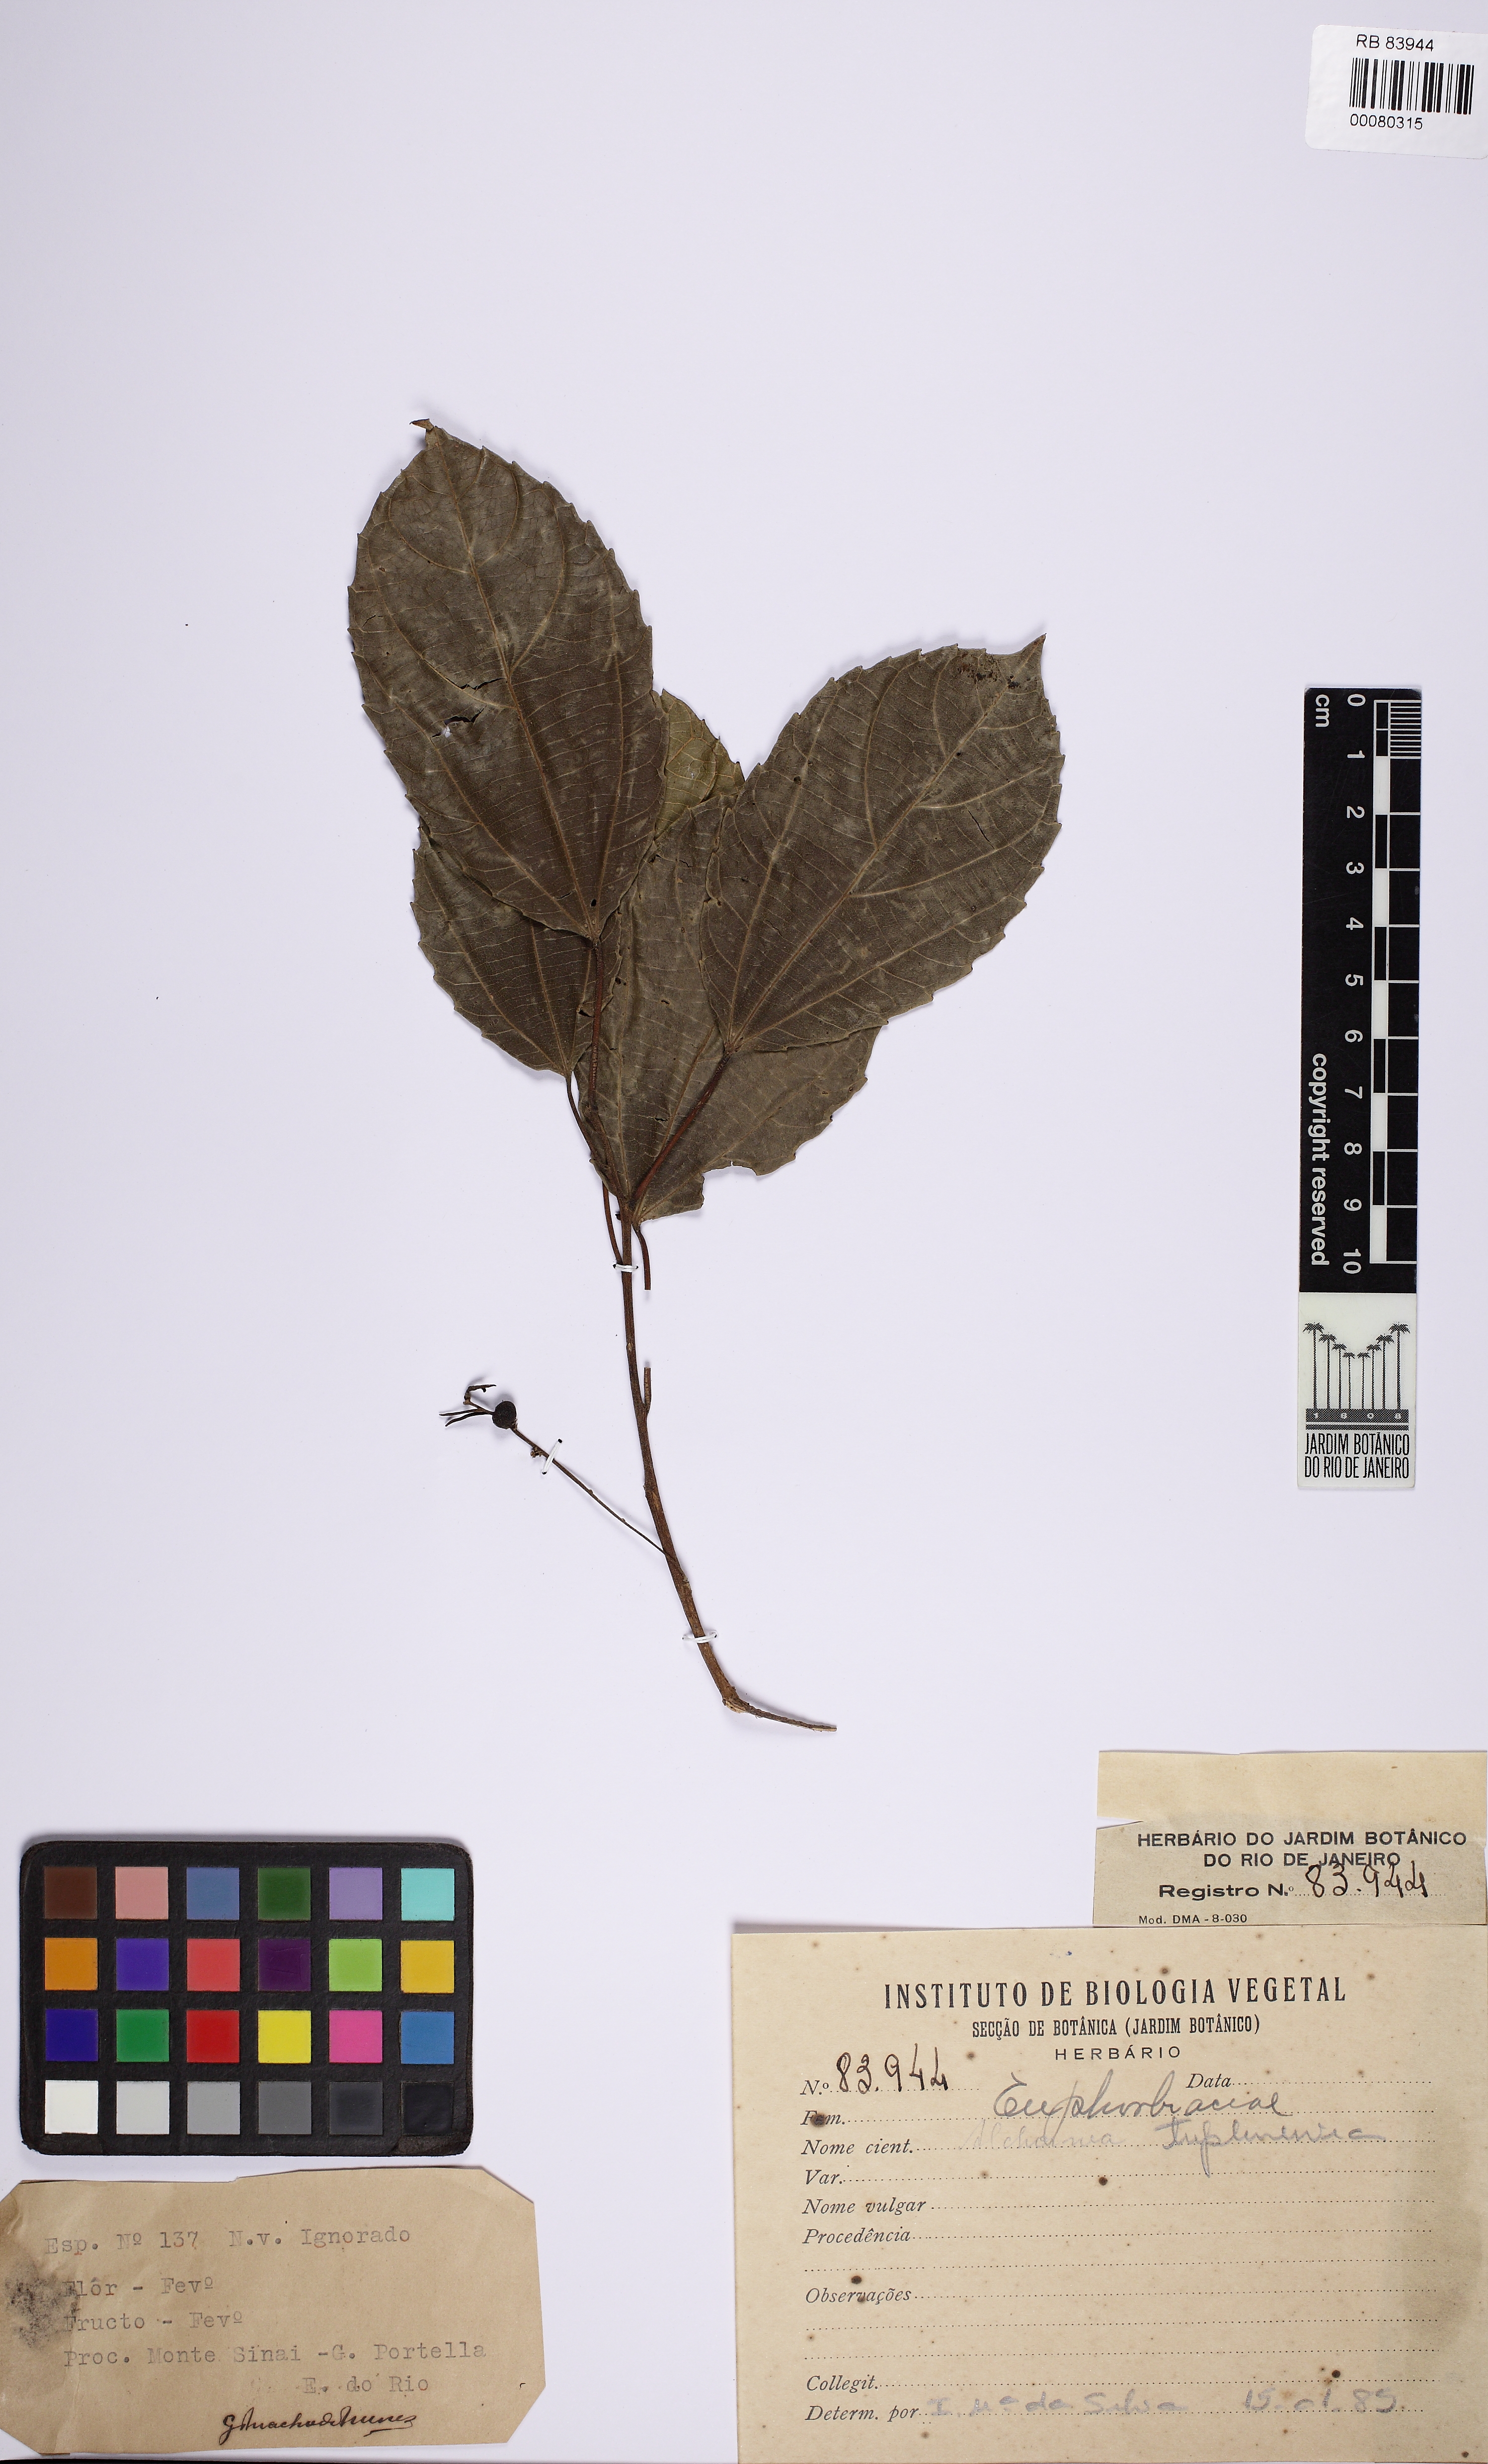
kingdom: Plantae
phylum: Tracheophyta
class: Magnoliopsida
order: Malpighiales
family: Euphorbiaceae
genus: Alchornea
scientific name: Alchornea triplinervia
